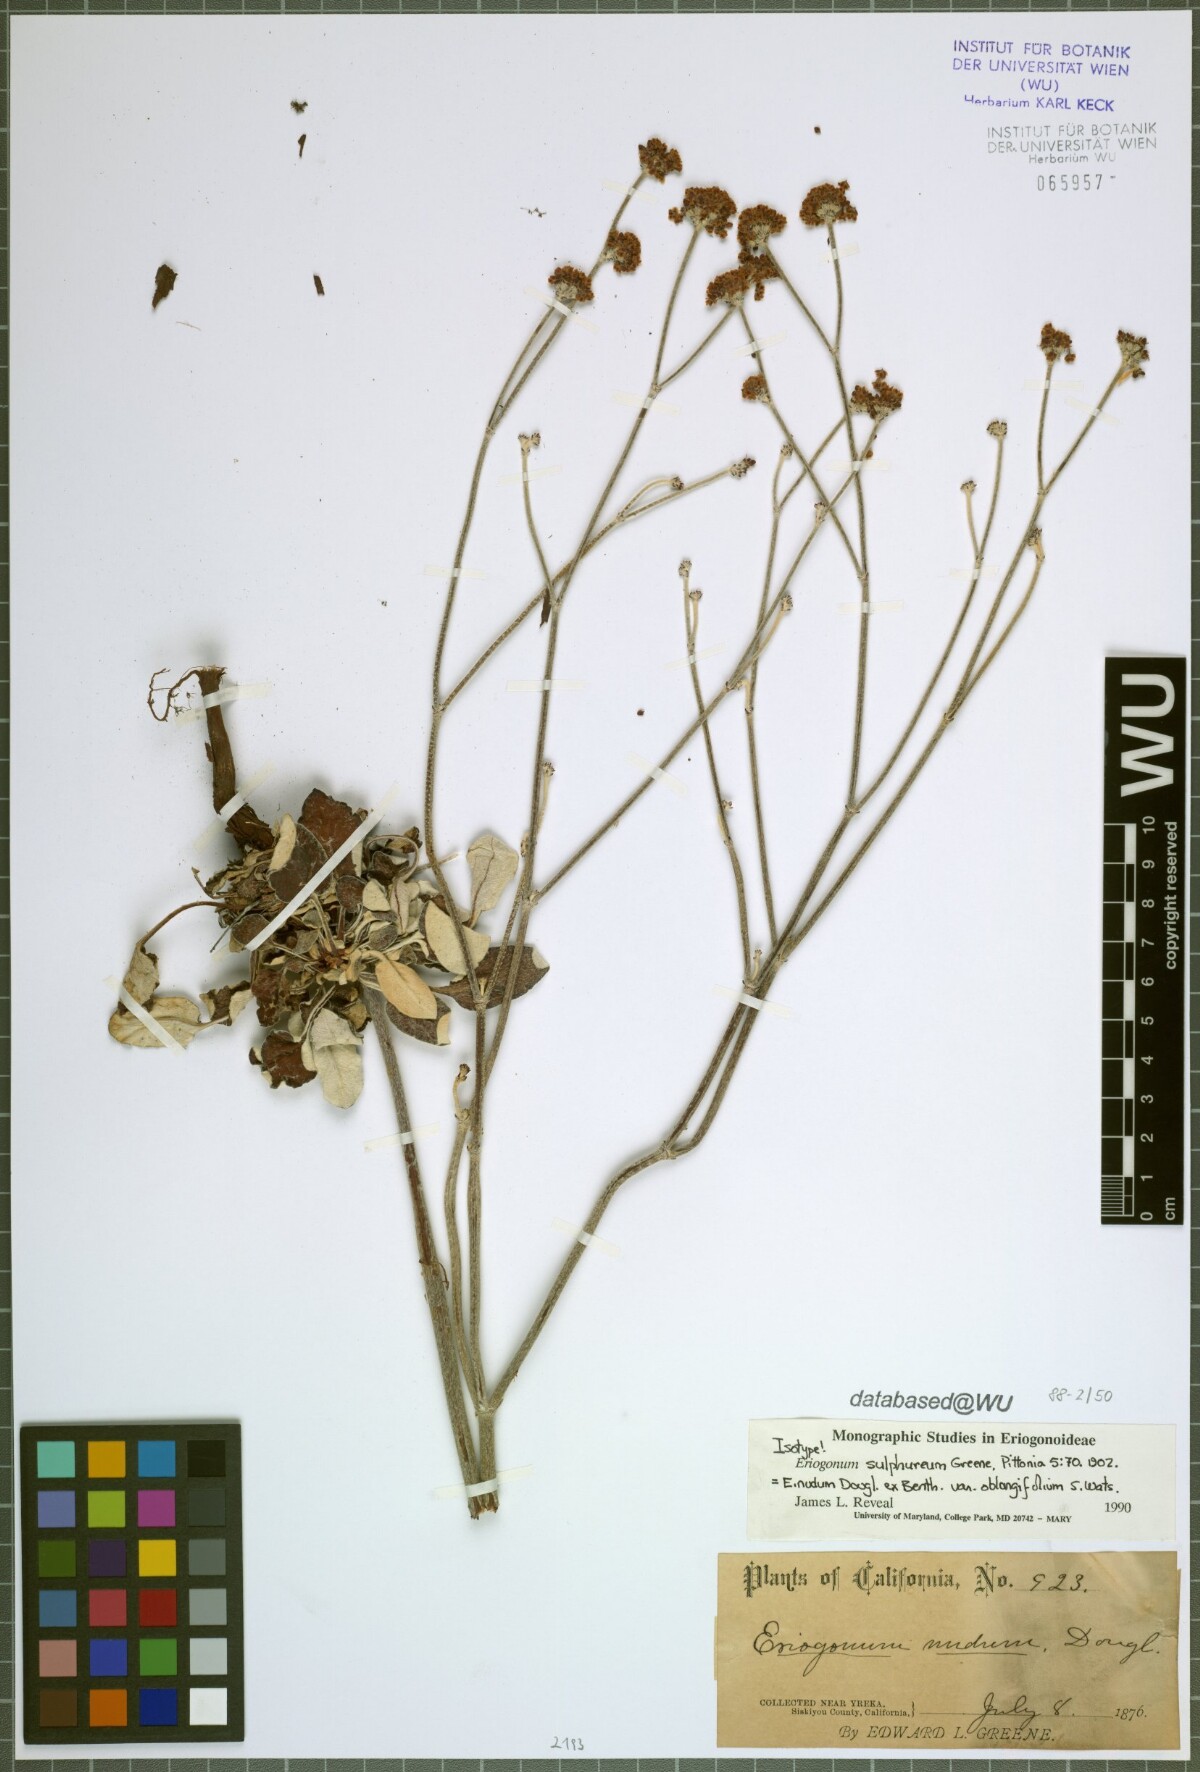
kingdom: Plantae
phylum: Tracheophyta
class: Magnoliopsida
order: Caryophyllales
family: Polygonaceae
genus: Eriogonum
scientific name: Eriogonum nudum
